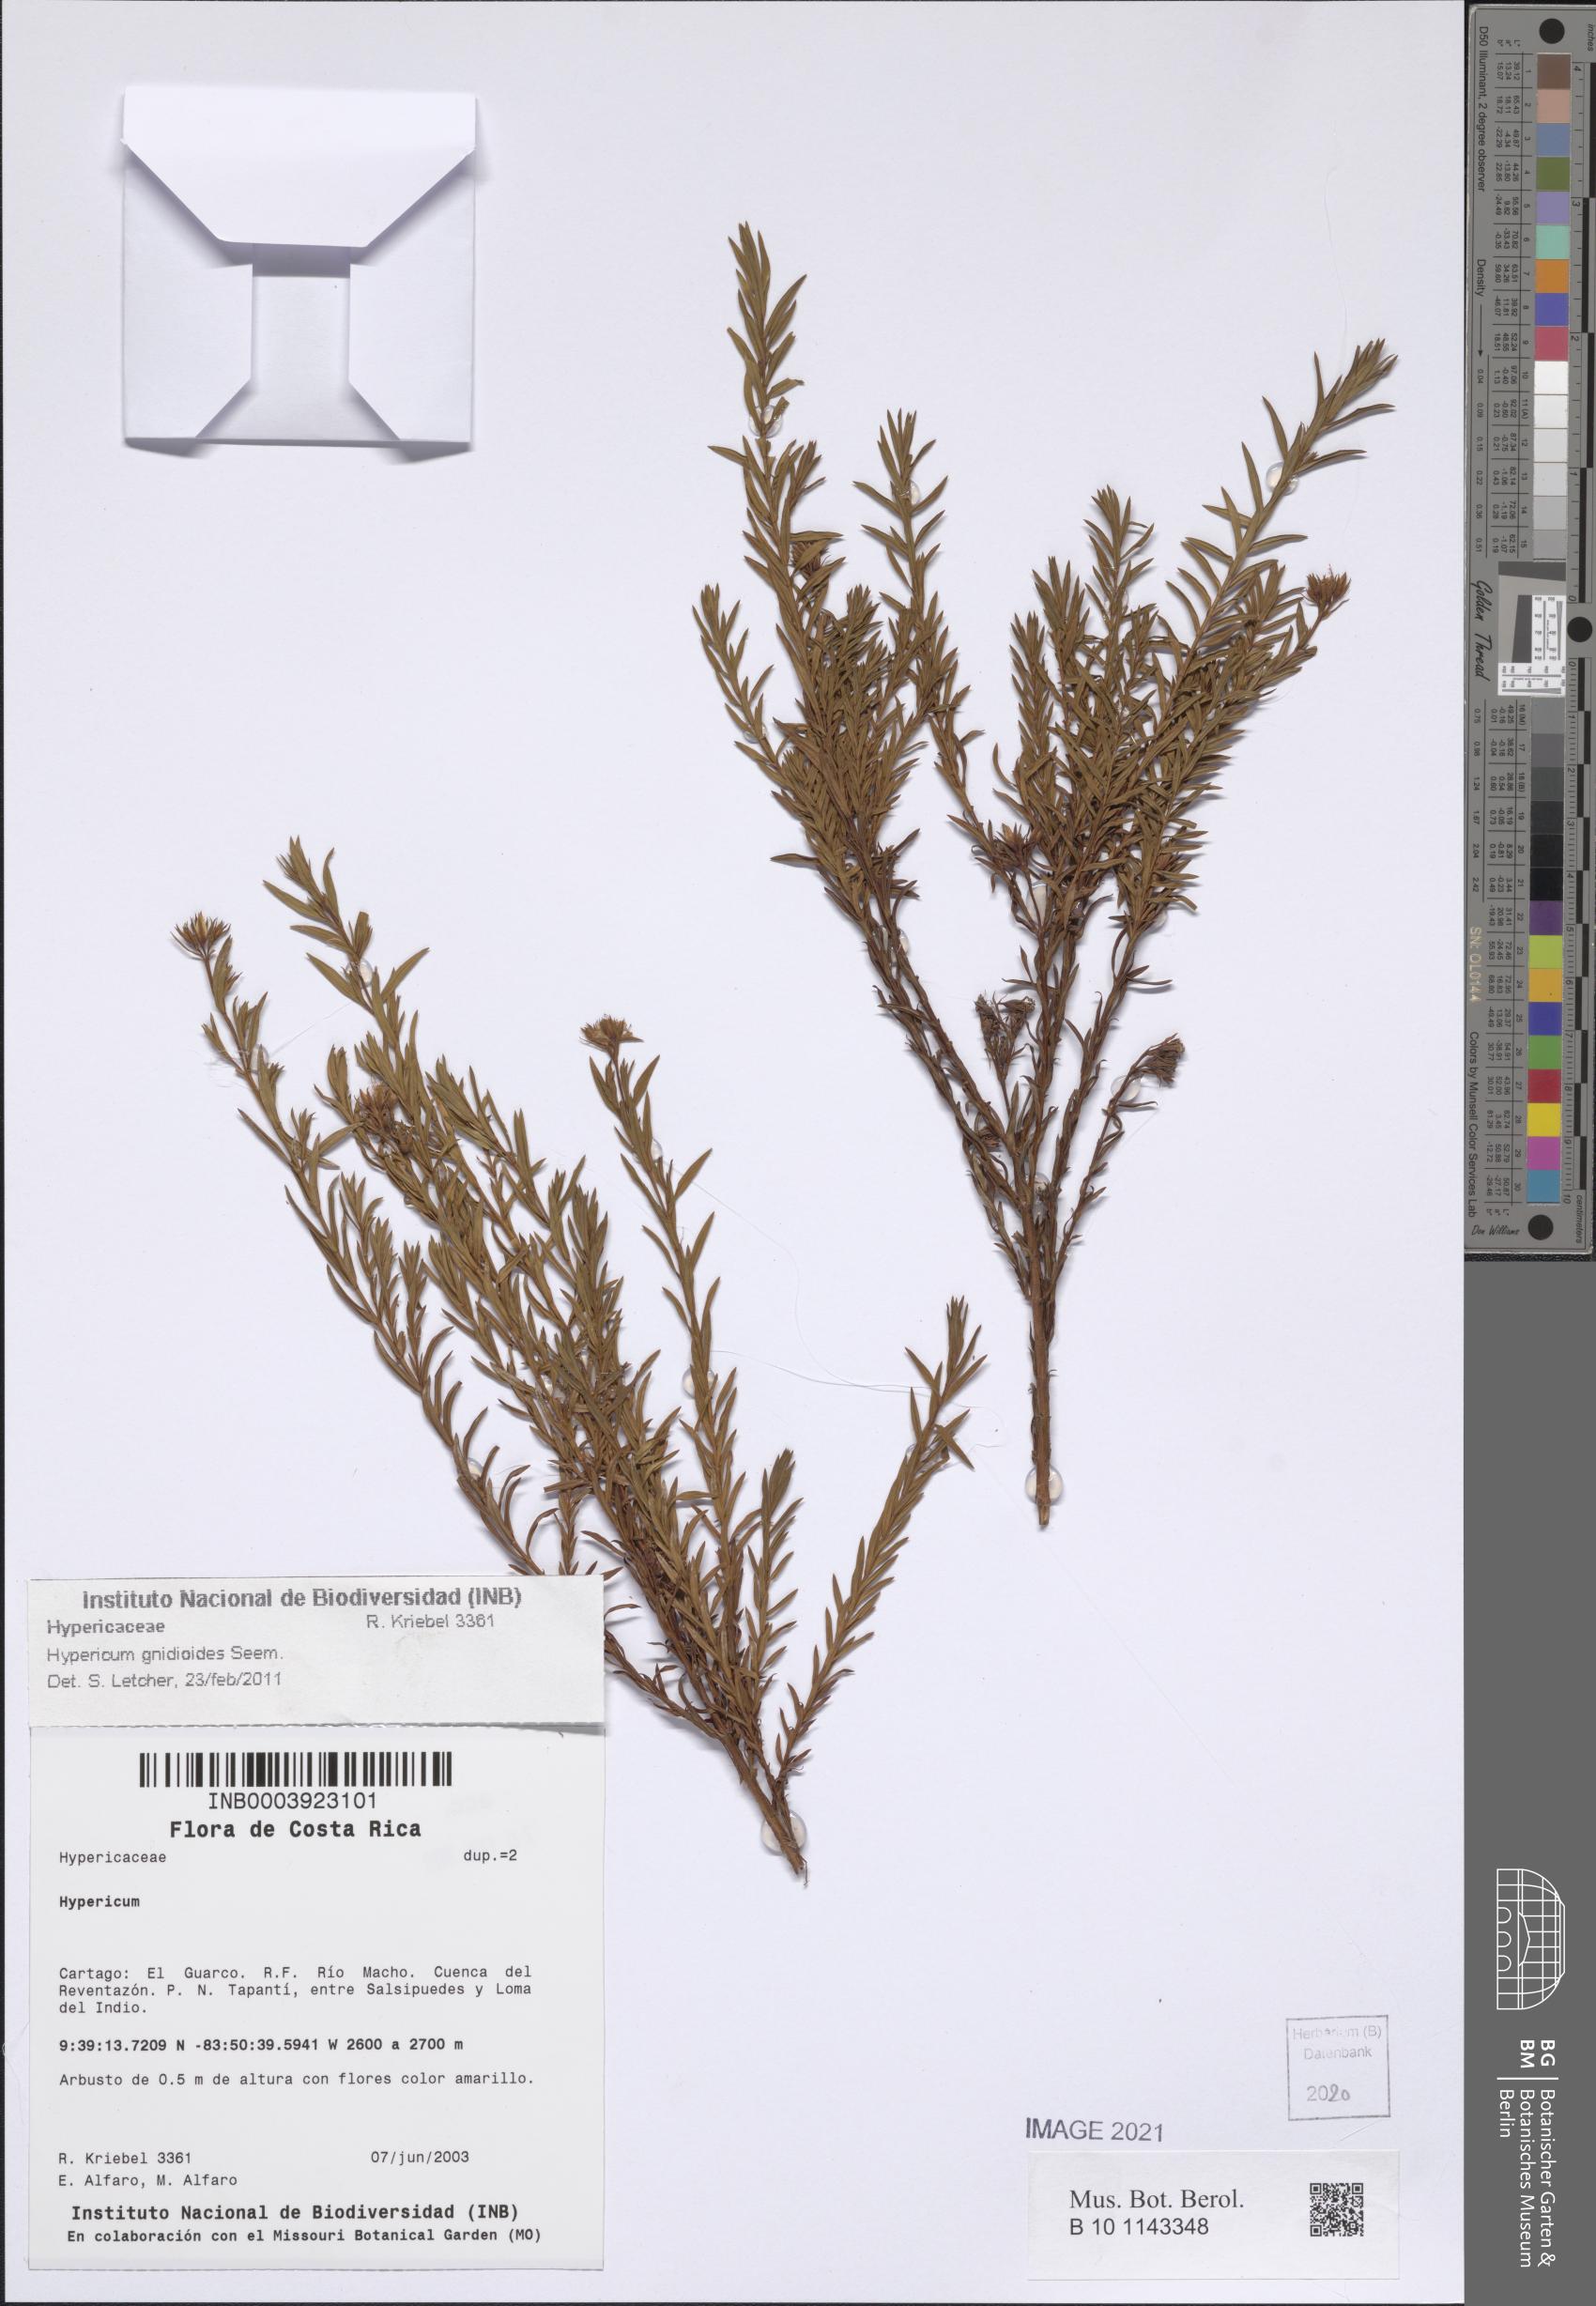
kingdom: Plantae
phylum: Tracheophyta
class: Magnoliopsida
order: Malpighiales
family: Hypericaceae
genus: Hypericum
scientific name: Hypericum gnidioides
